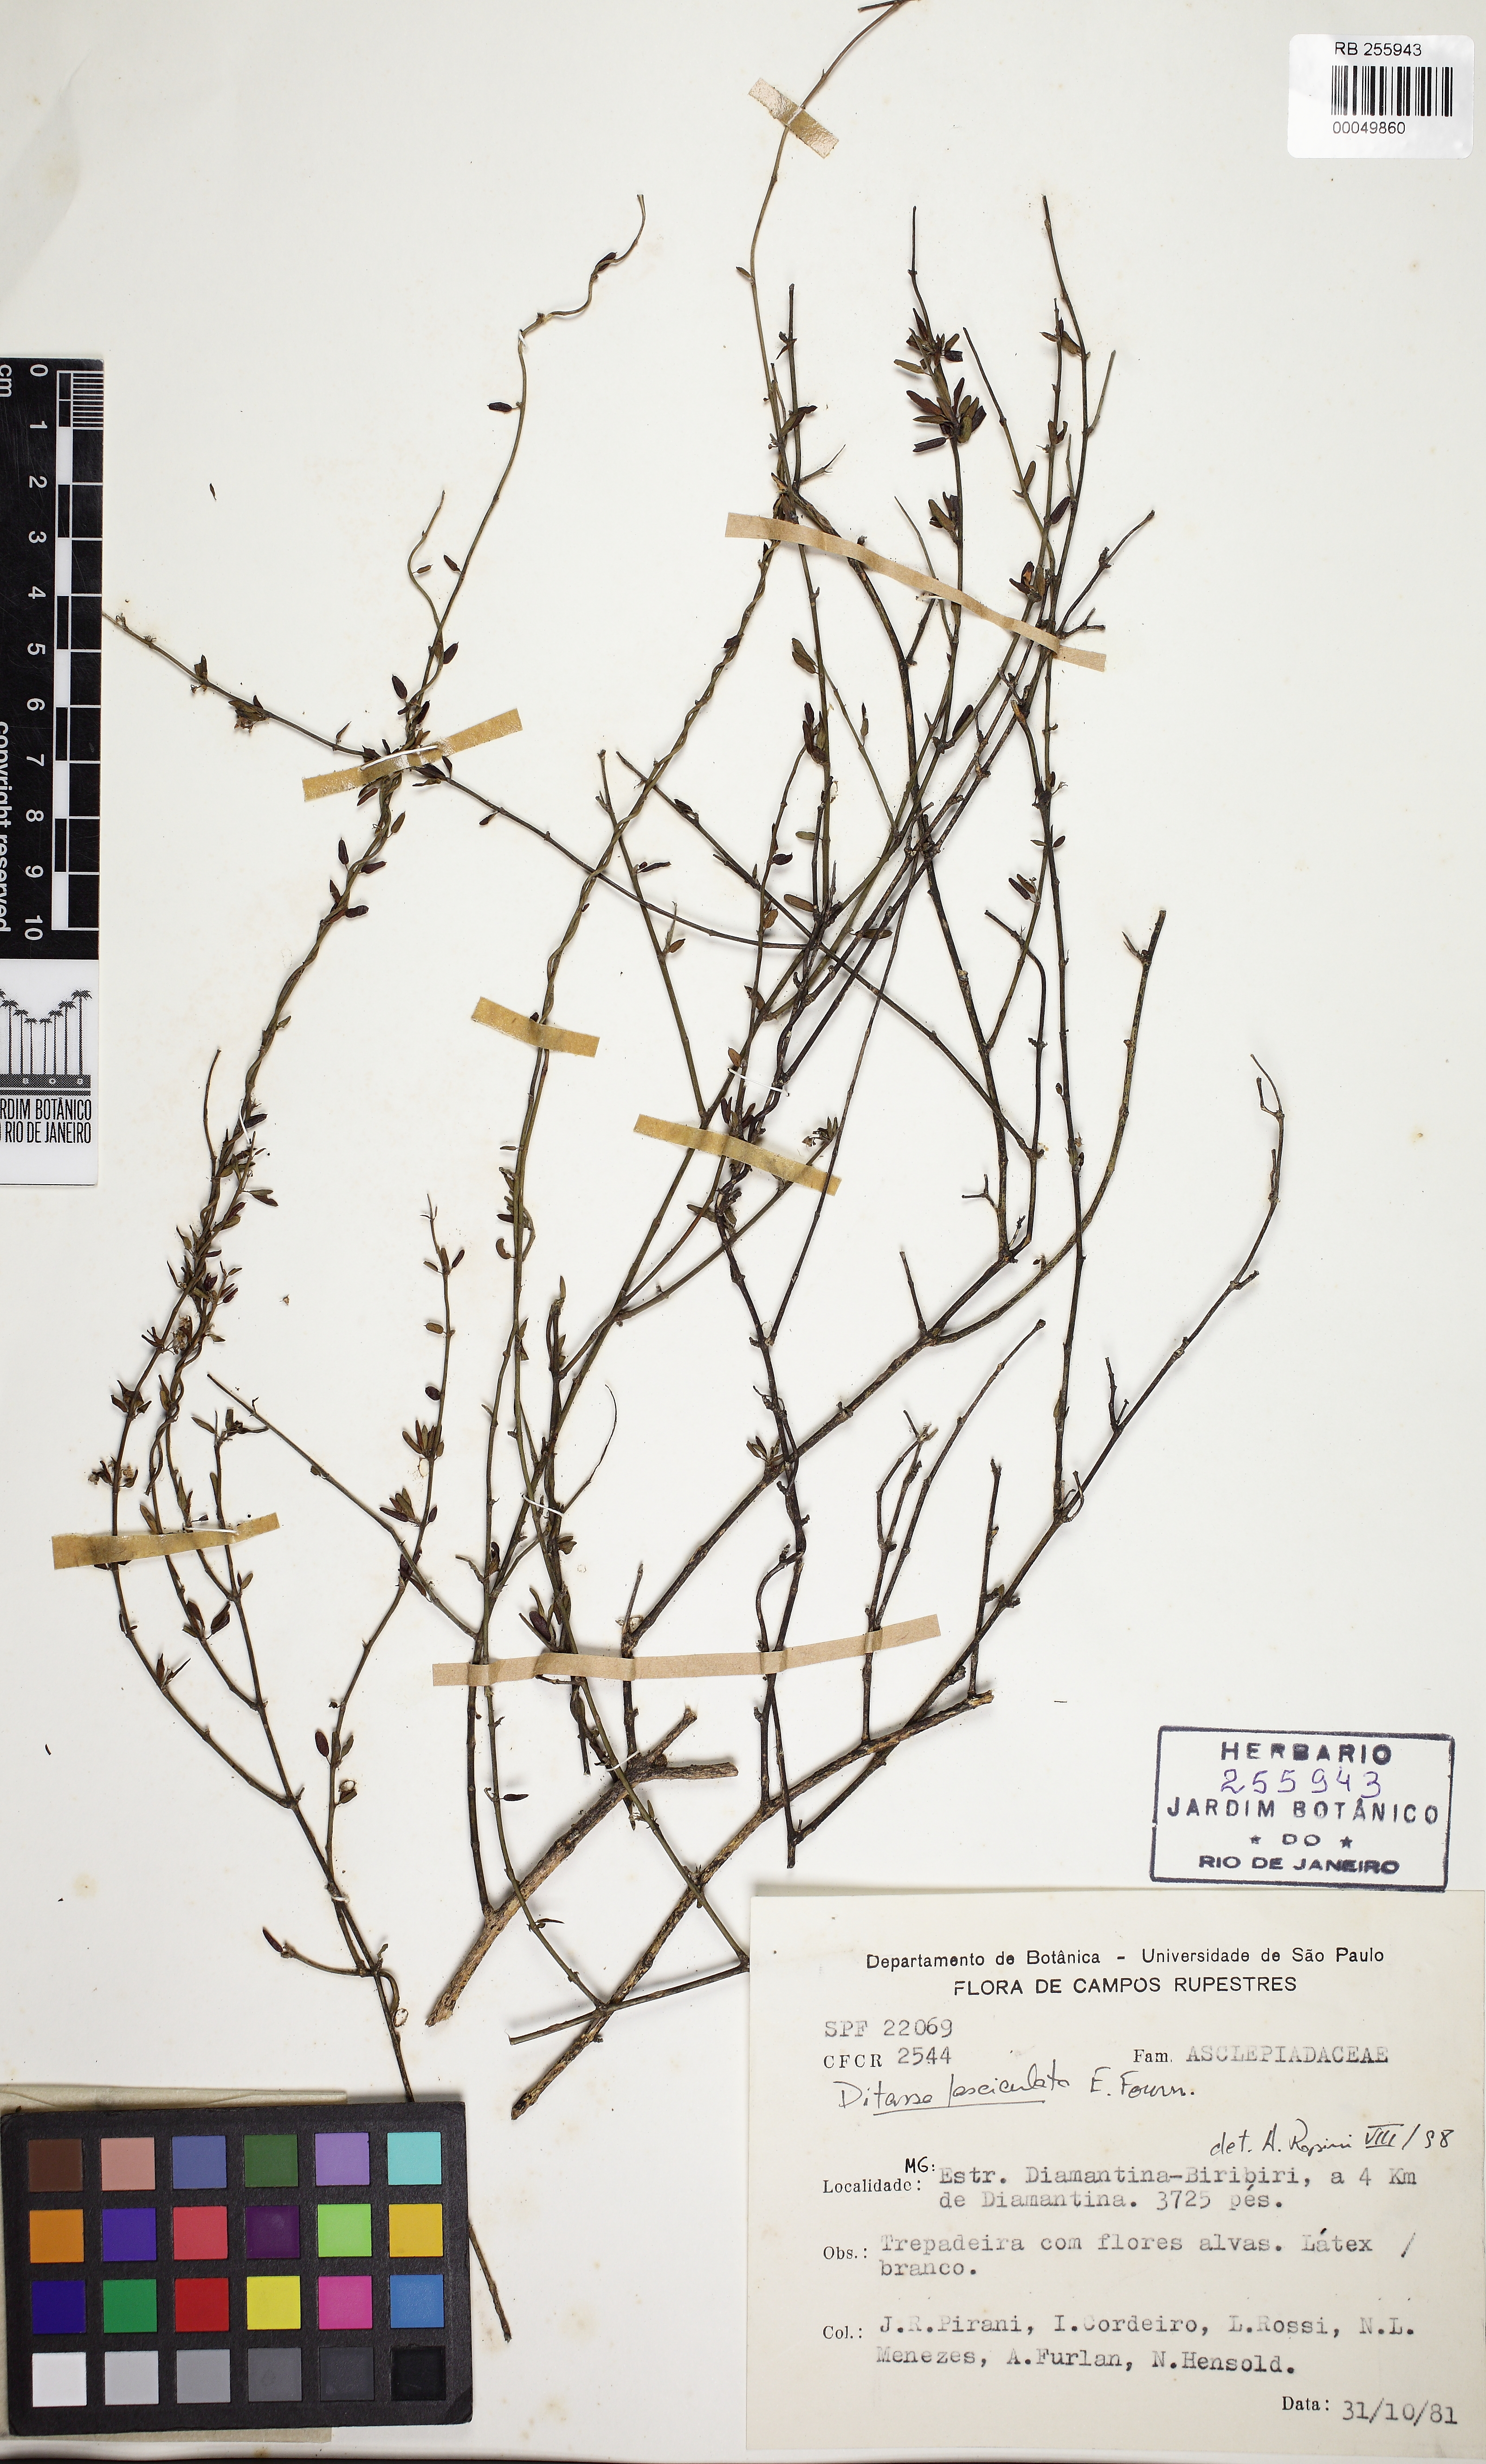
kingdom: Plantae
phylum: Tracheophyta
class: Magnoliopsida
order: Gentianales
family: Apocynaceae
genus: Ditassa
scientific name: Ditassa fasciculata
